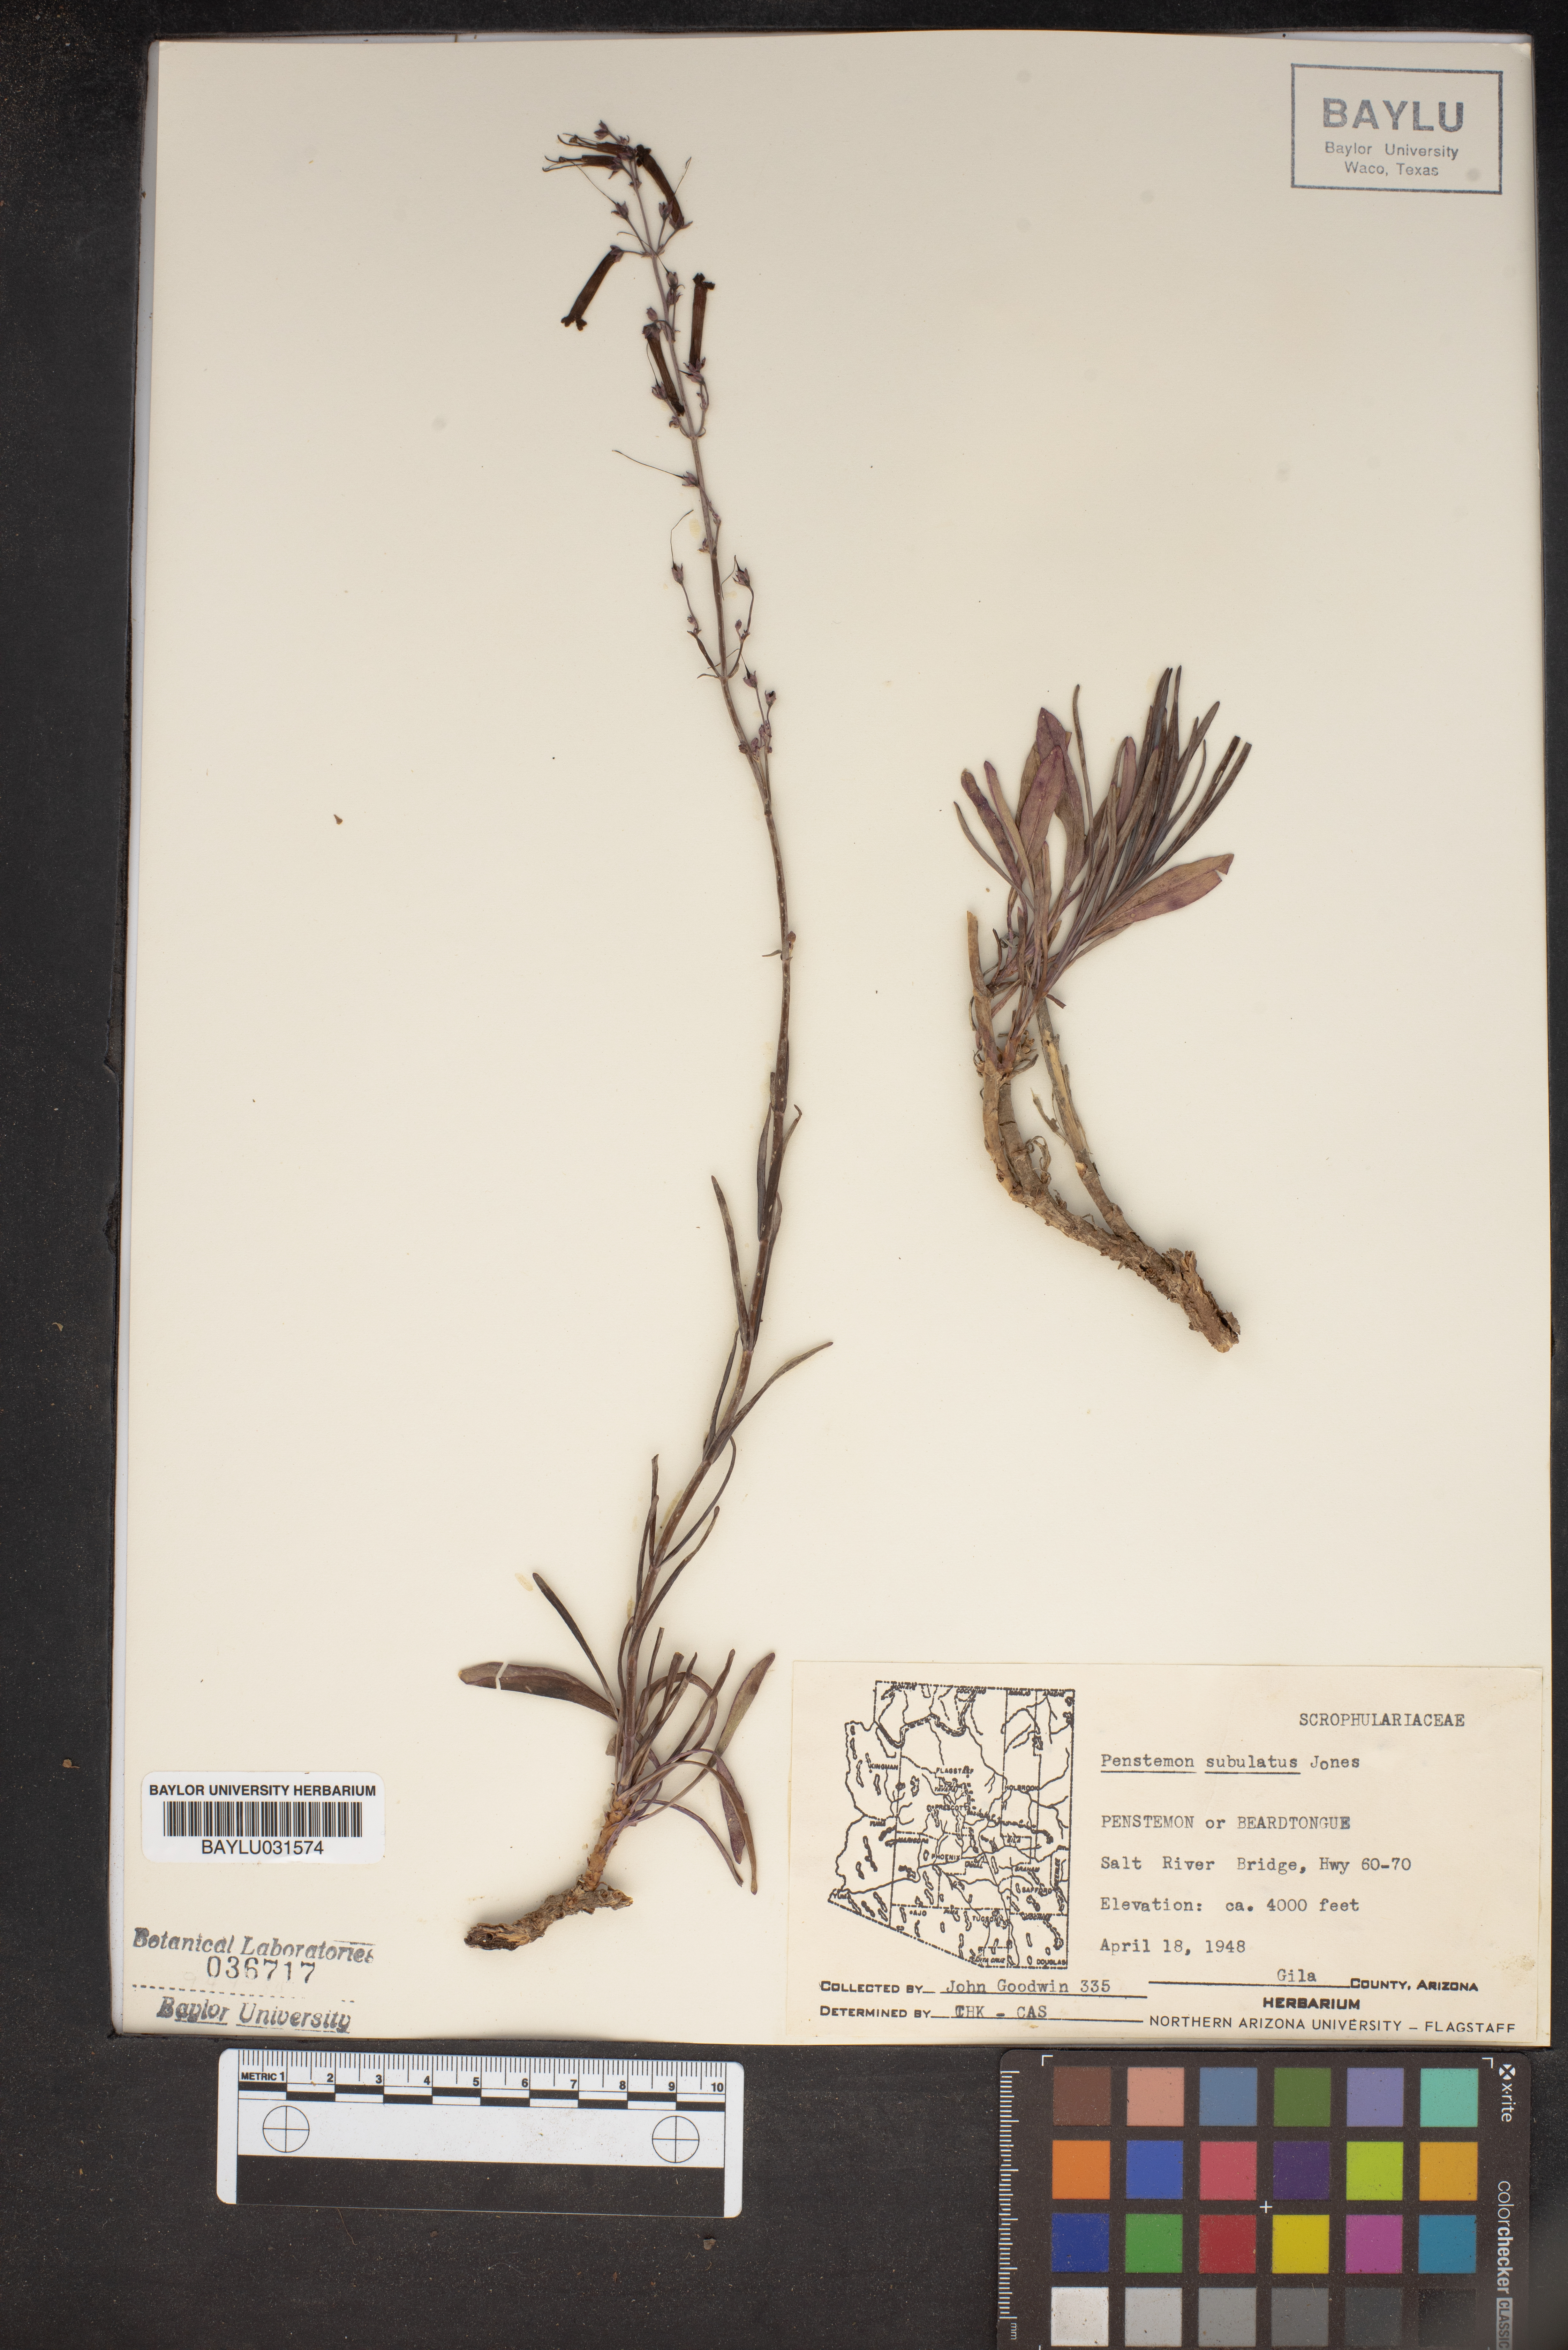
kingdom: Plantae
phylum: Tracheophyta
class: Magnoliopsida
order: Lamiales
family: Plantaginaceae
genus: Penstemon
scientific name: Penstemon subulatus
